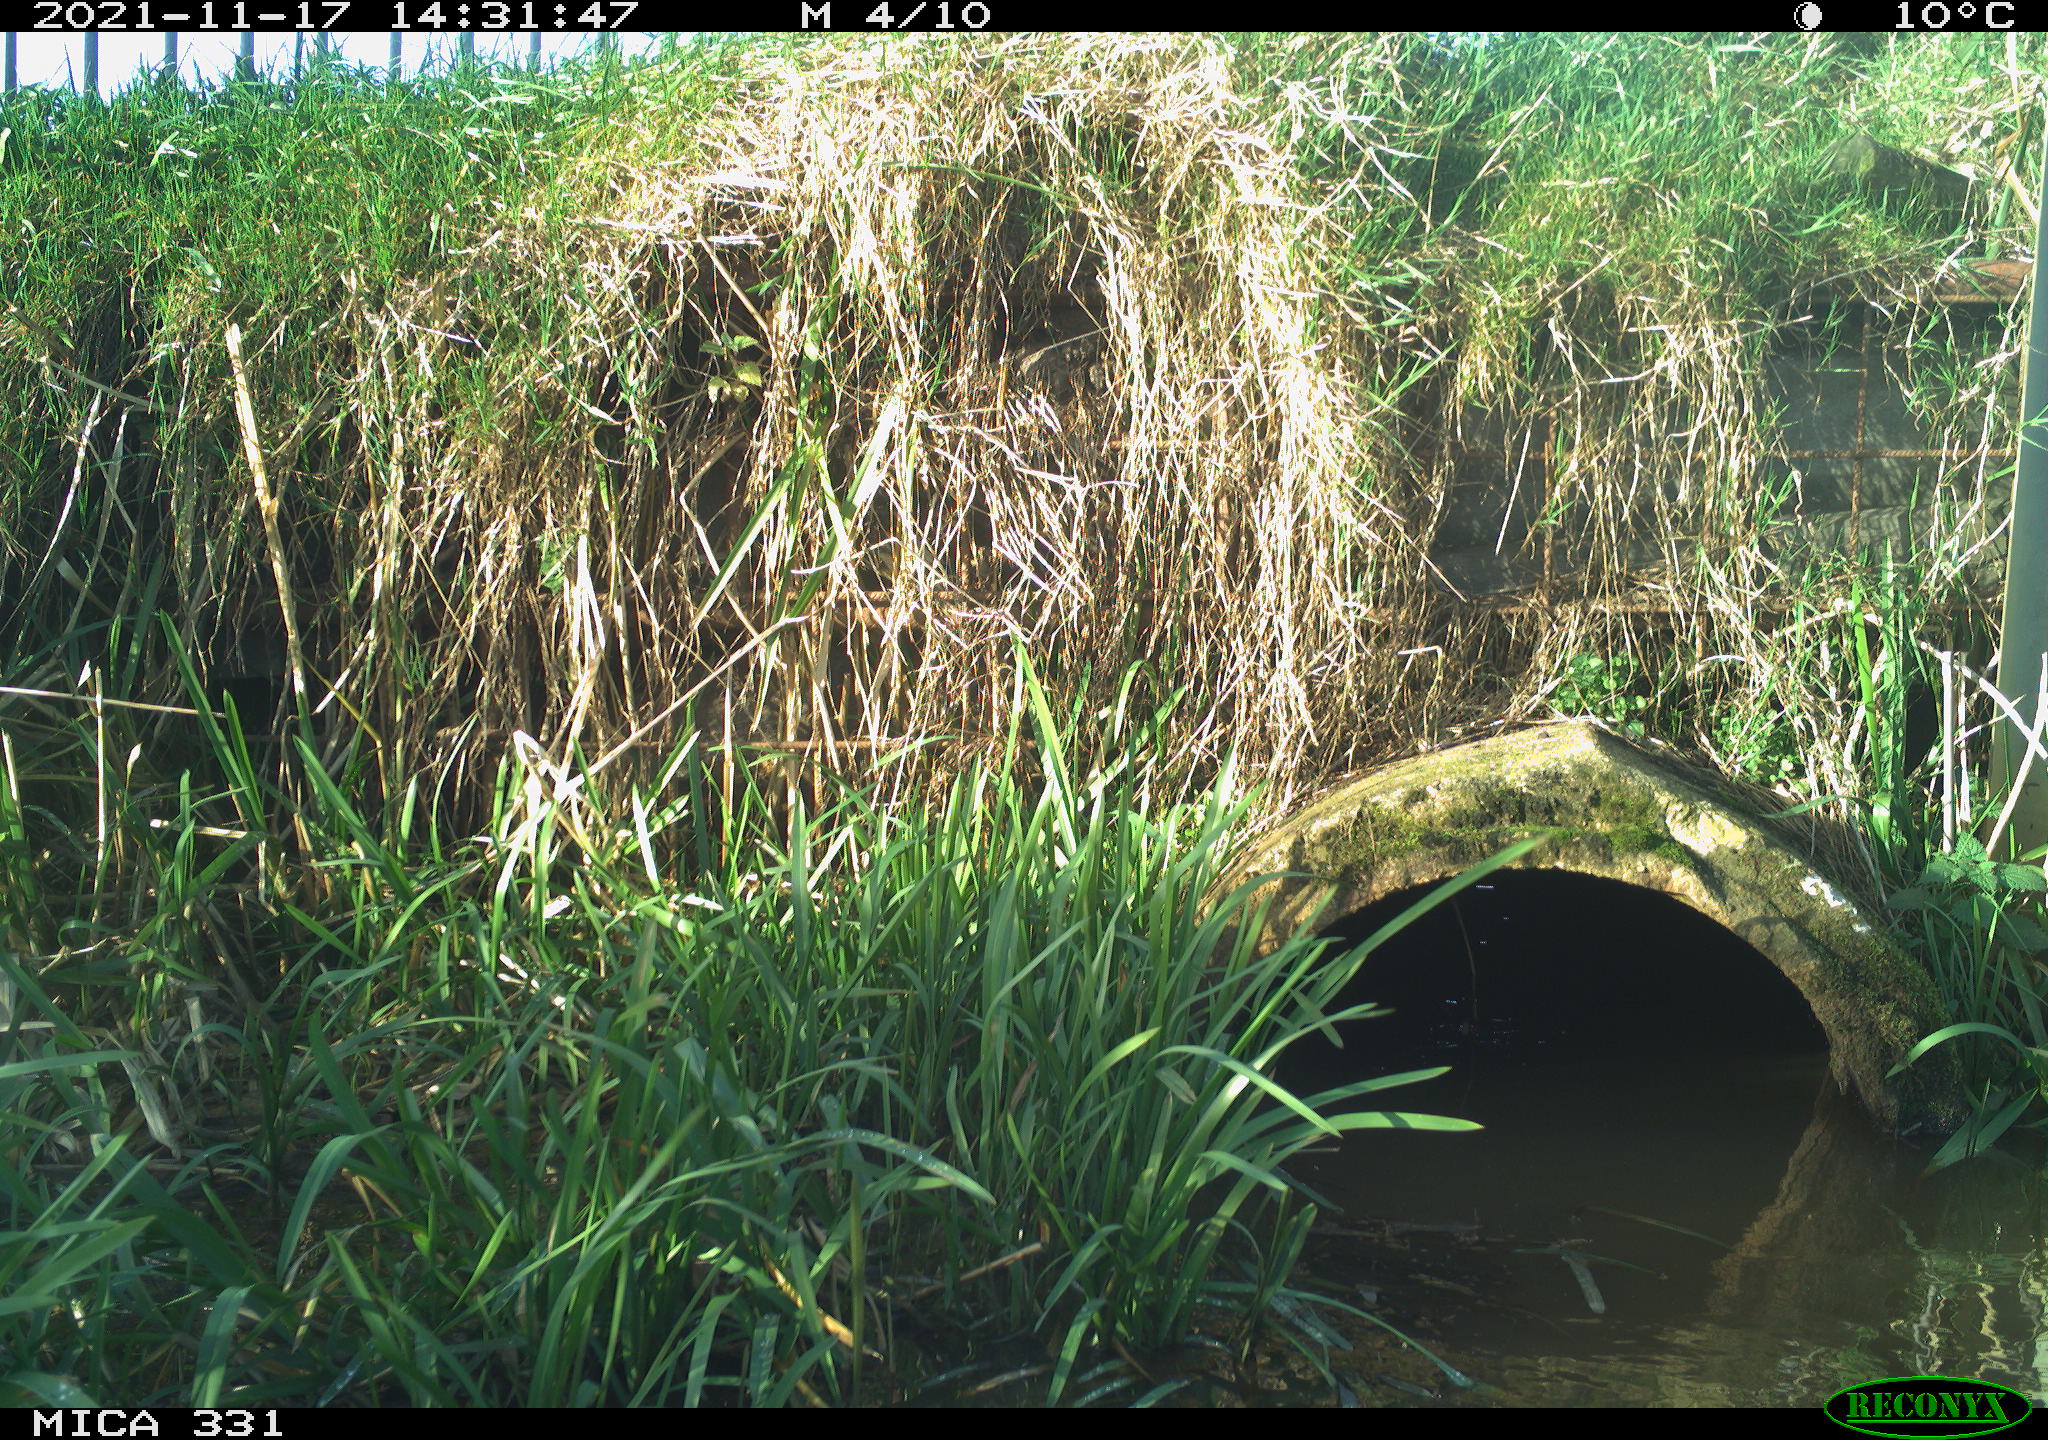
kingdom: Animalia
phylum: Chordata
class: Aves
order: Gruiformes
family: Rallidae
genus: Gallinula
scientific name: Gallinula chloropus
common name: Common moorhen
